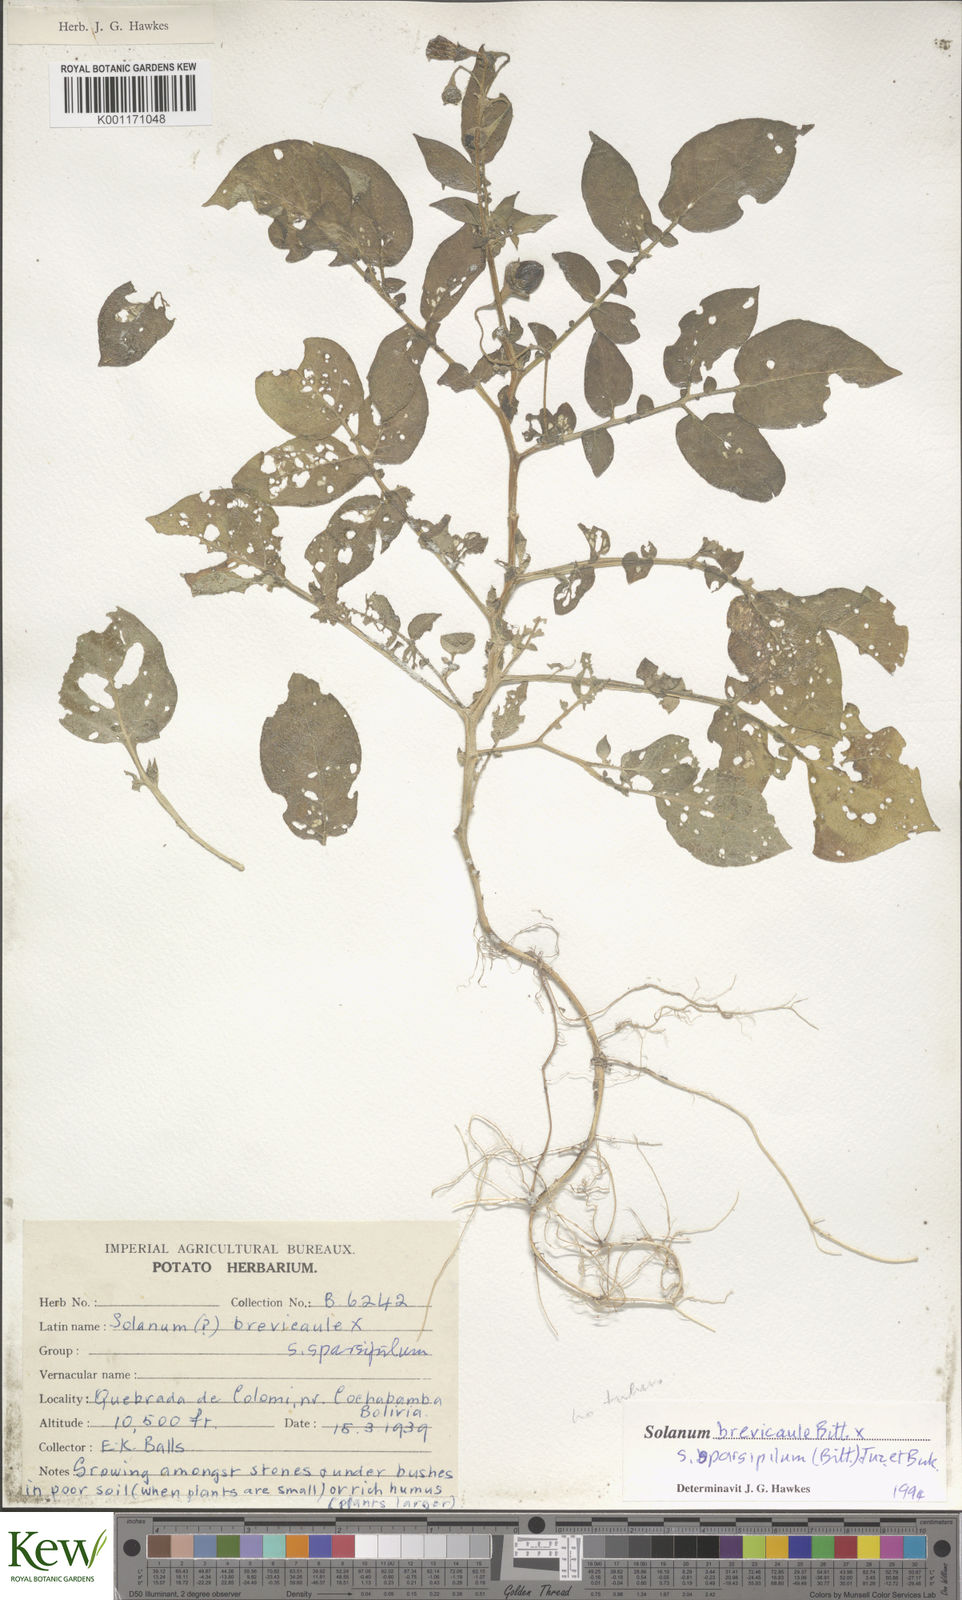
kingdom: Plantae
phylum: Tracheophyta
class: Magnoliopsida
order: Solanales
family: Solanaceae
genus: Solanum
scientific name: Solanum brevicaule
